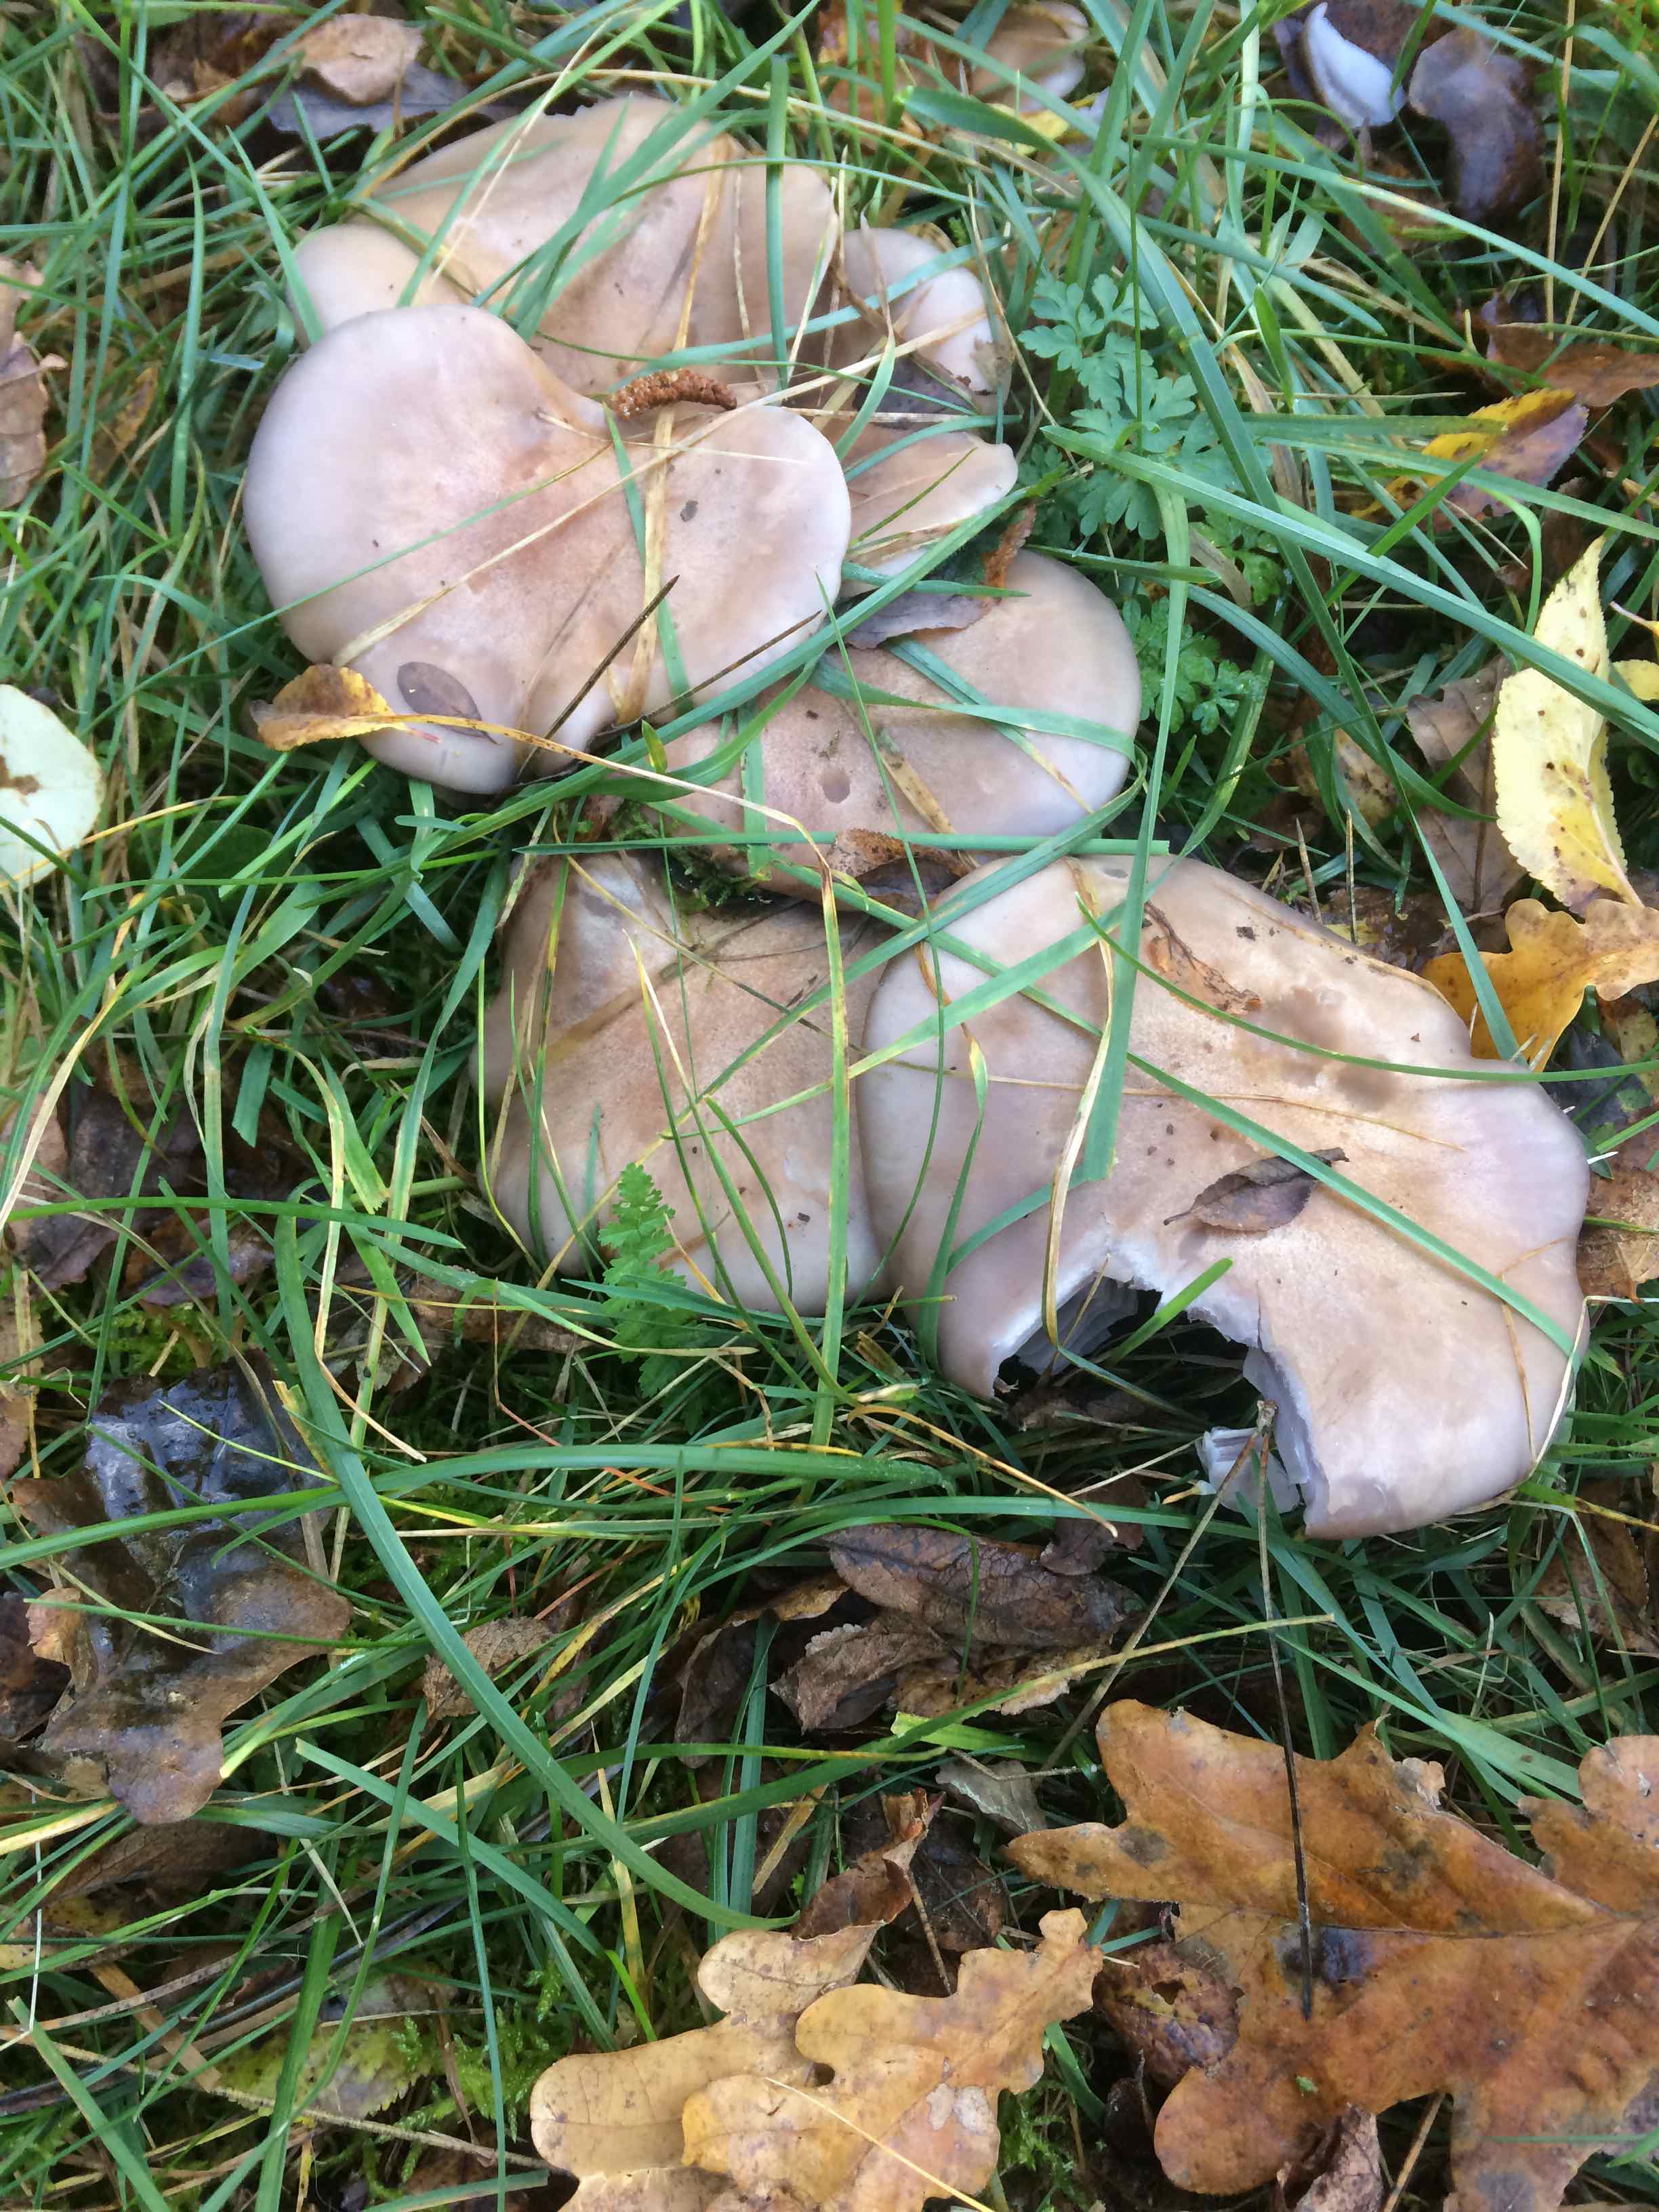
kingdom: Fungi
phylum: Basidiomycota
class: Agaricomycetes
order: Agaricales
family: Tricholomataceae
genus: Lepista
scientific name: Lepista nuda
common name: violet hekseringshat
